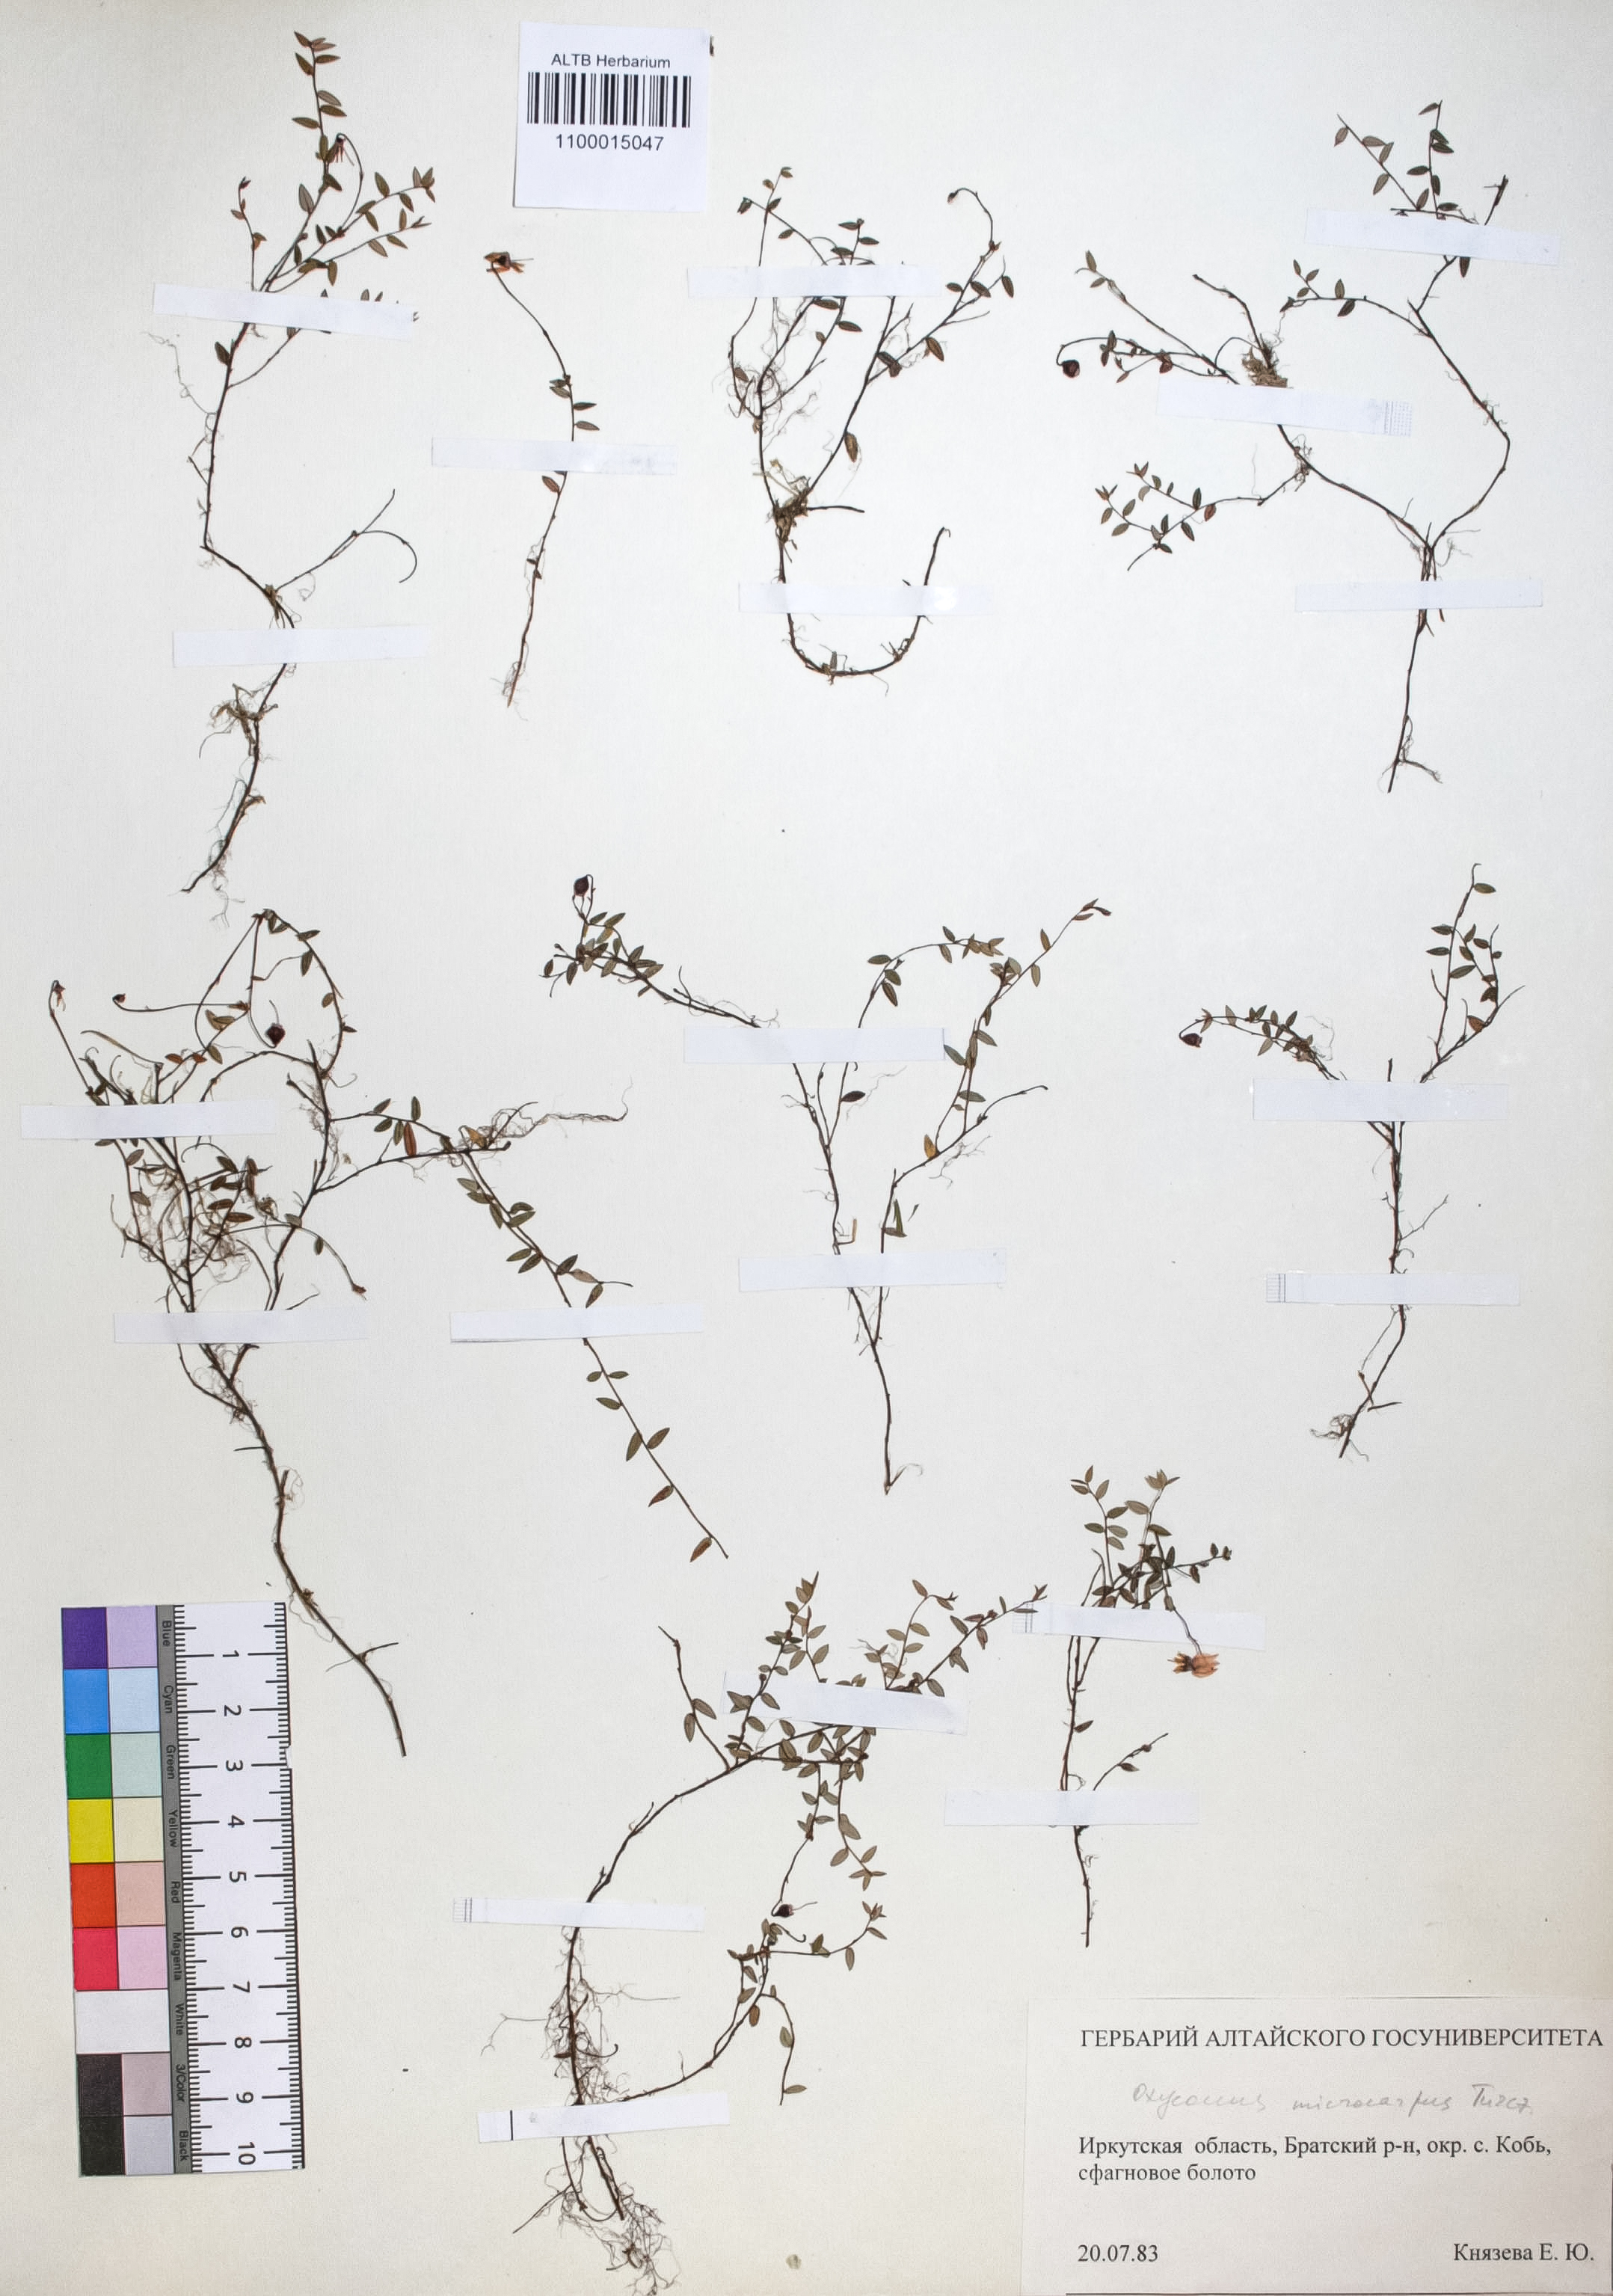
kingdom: Plantae
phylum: Tracheophyta
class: Magnoliopsida
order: Ericales
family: Ericaceae
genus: Vaccinium
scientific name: Vaccinium microcarpum
